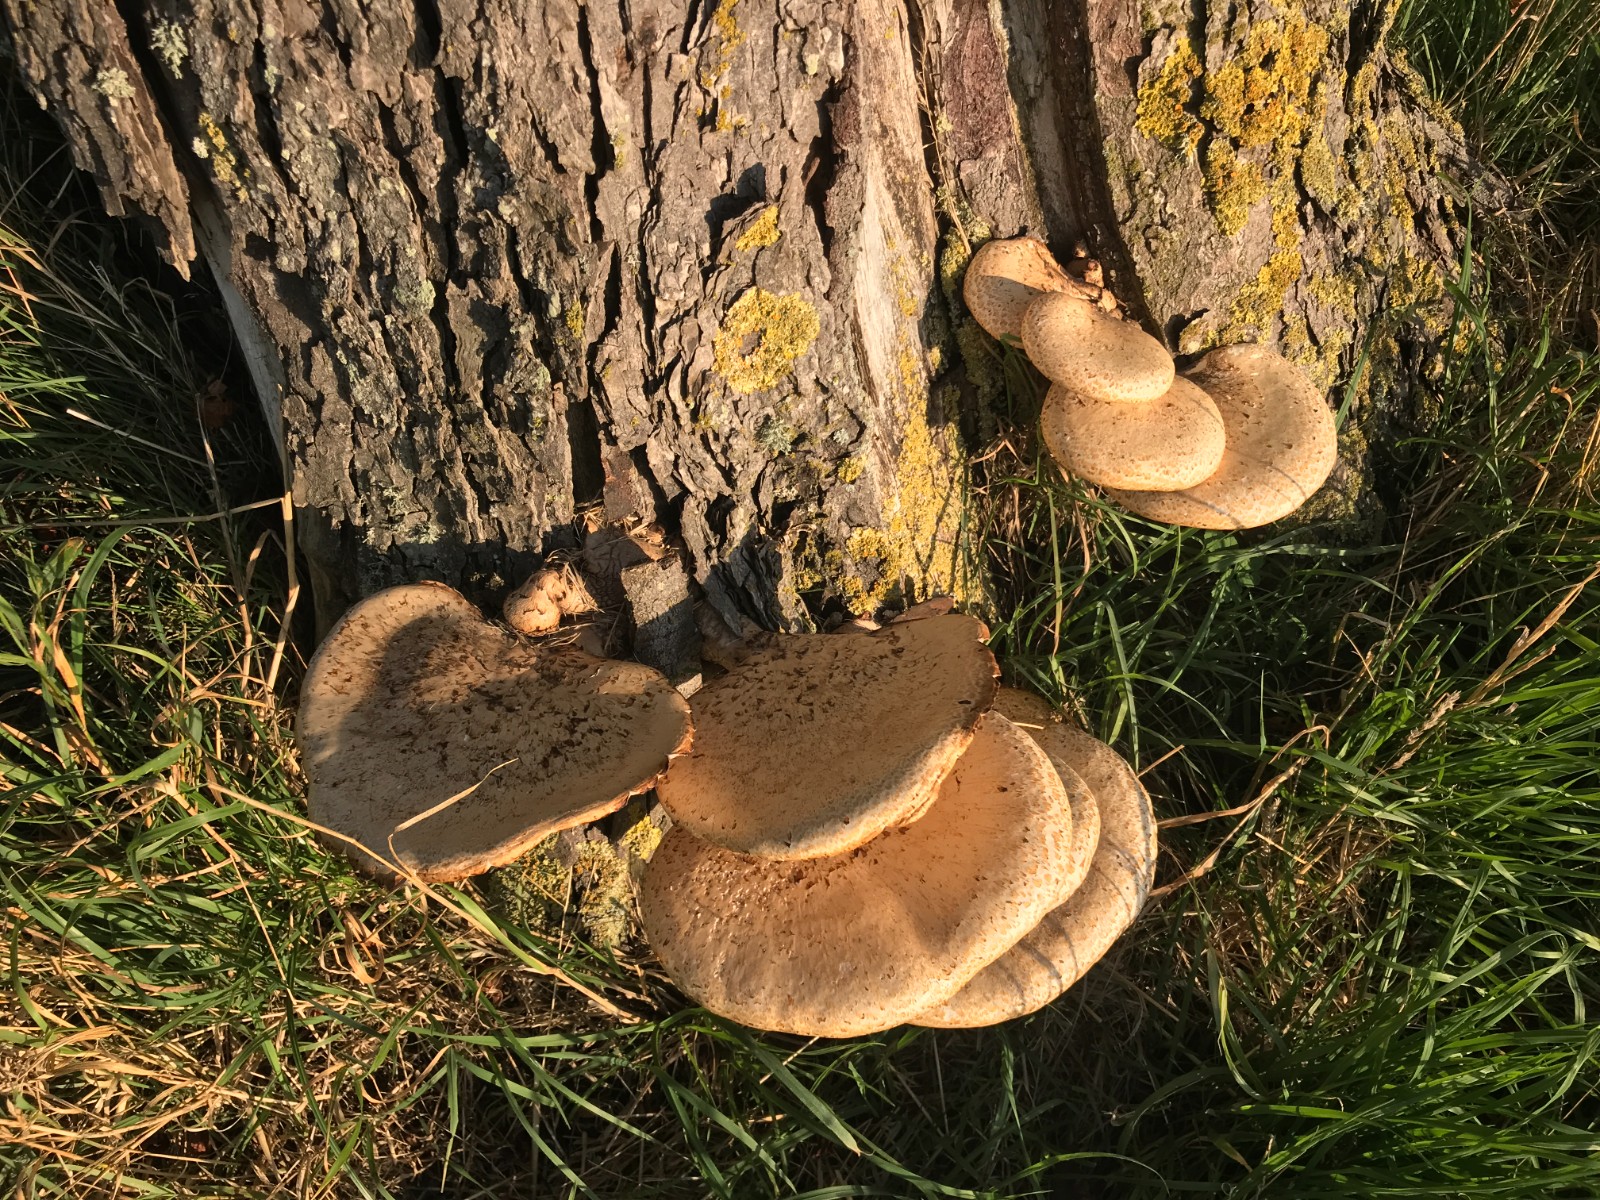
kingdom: Fungi
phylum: Basidiomycota
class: Agaricomycetes
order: Polyporales
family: Polyporaceae
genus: Cerioporus
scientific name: Cerioporus squamosus
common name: skællet stilkporesvamp
